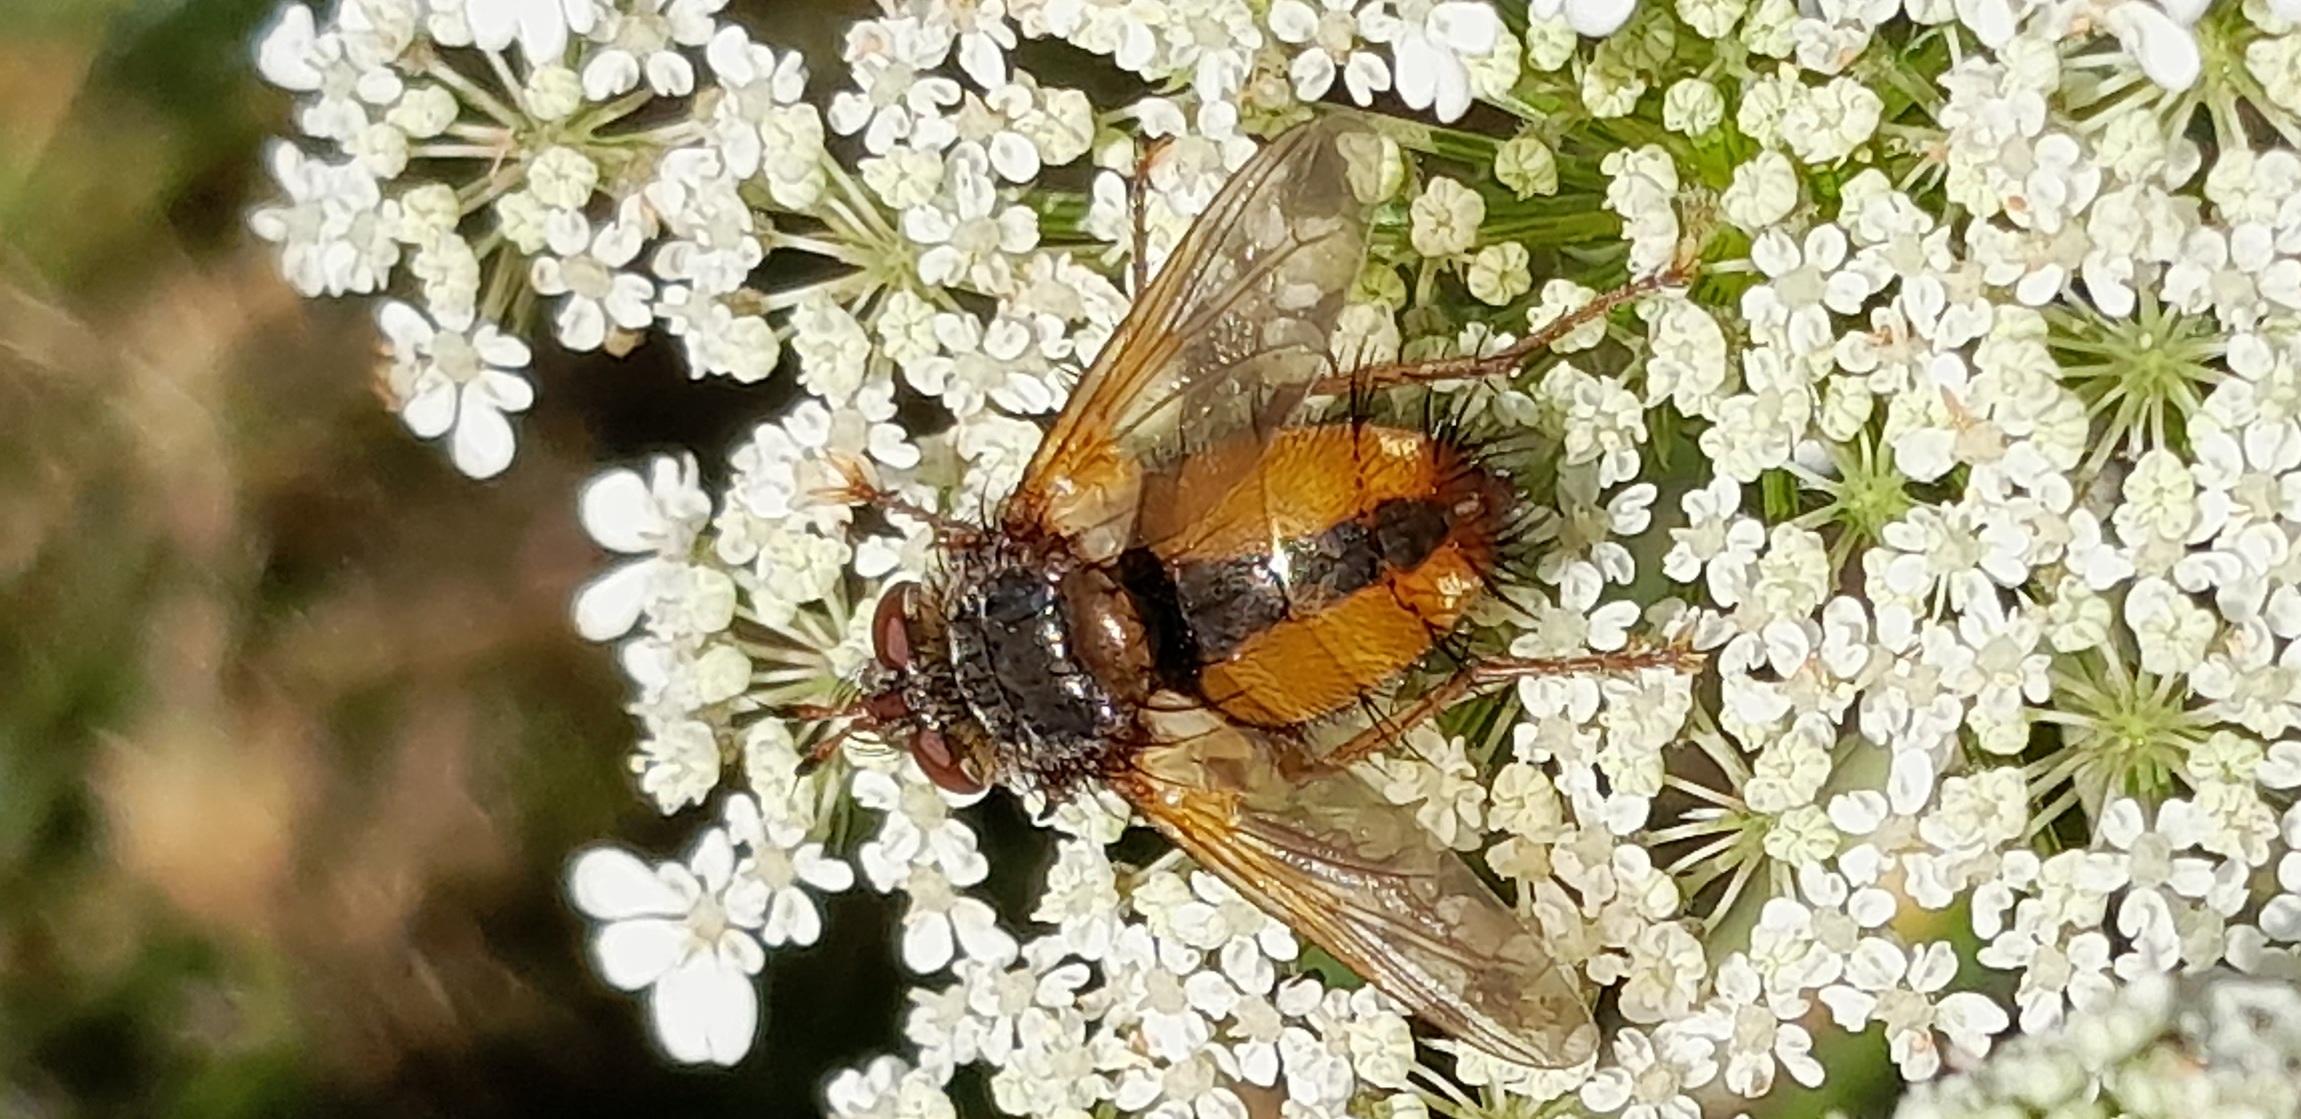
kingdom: Animalia
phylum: Arthropoda
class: Insecta
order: Diptera
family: Tachinidae
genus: Tachina
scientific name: Tachina fera
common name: Mellemfluen oskar
